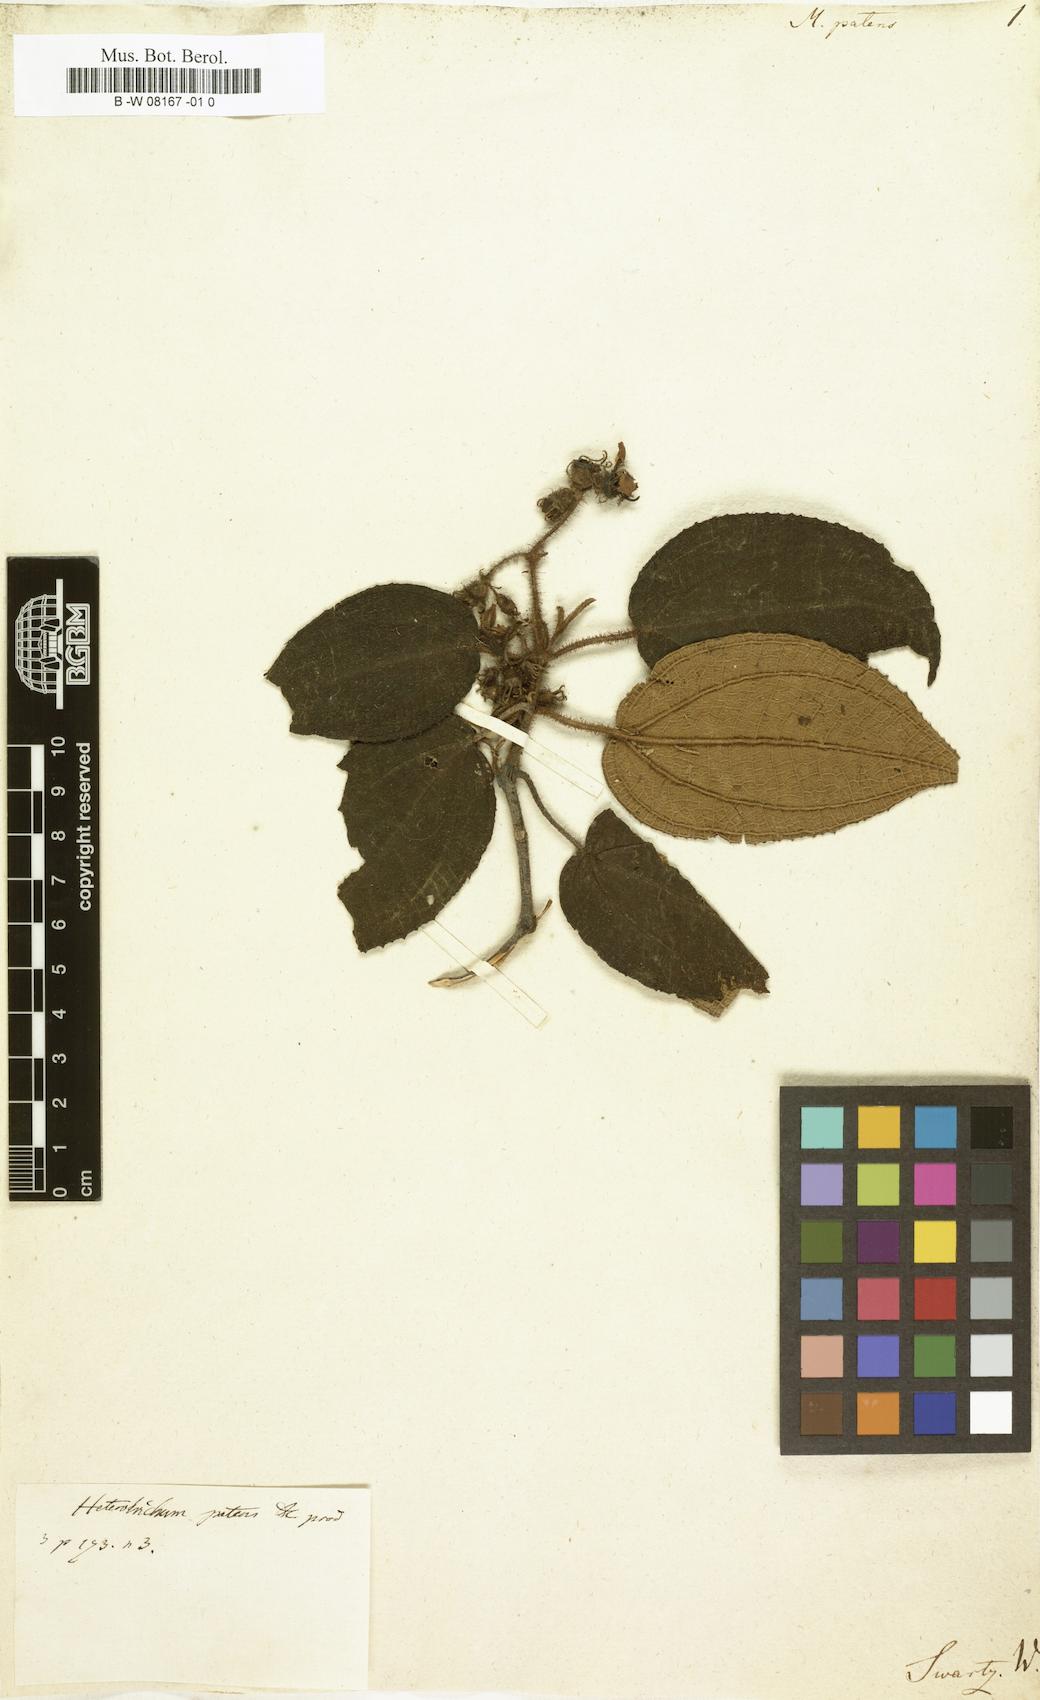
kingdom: Plantae
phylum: Tracheophyta
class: Magnoliopsida
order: Myrtales
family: Melastomataceae
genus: Miconia
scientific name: Miconia
